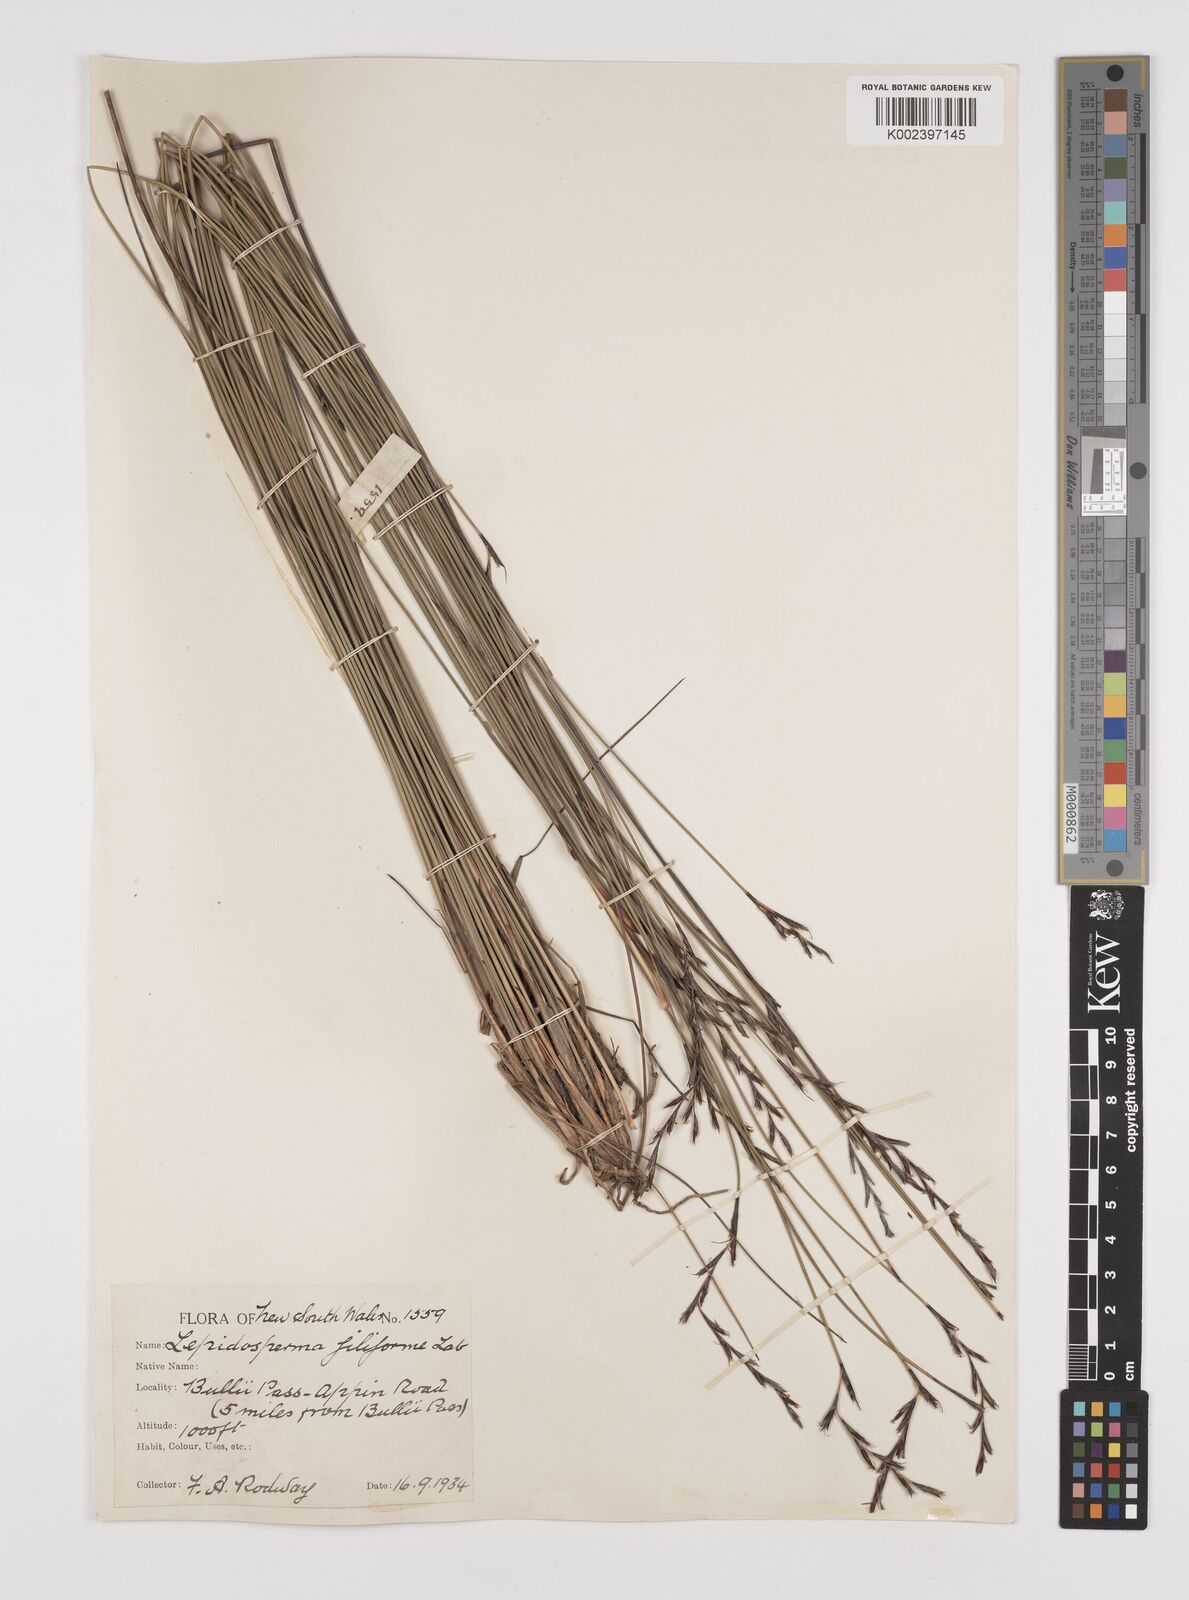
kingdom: Plantae
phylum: Tracheophyta
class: Liliopsida
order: Poales
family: Cyperaceae
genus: Lepidosperma
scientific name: Lepidosperma filiforme
